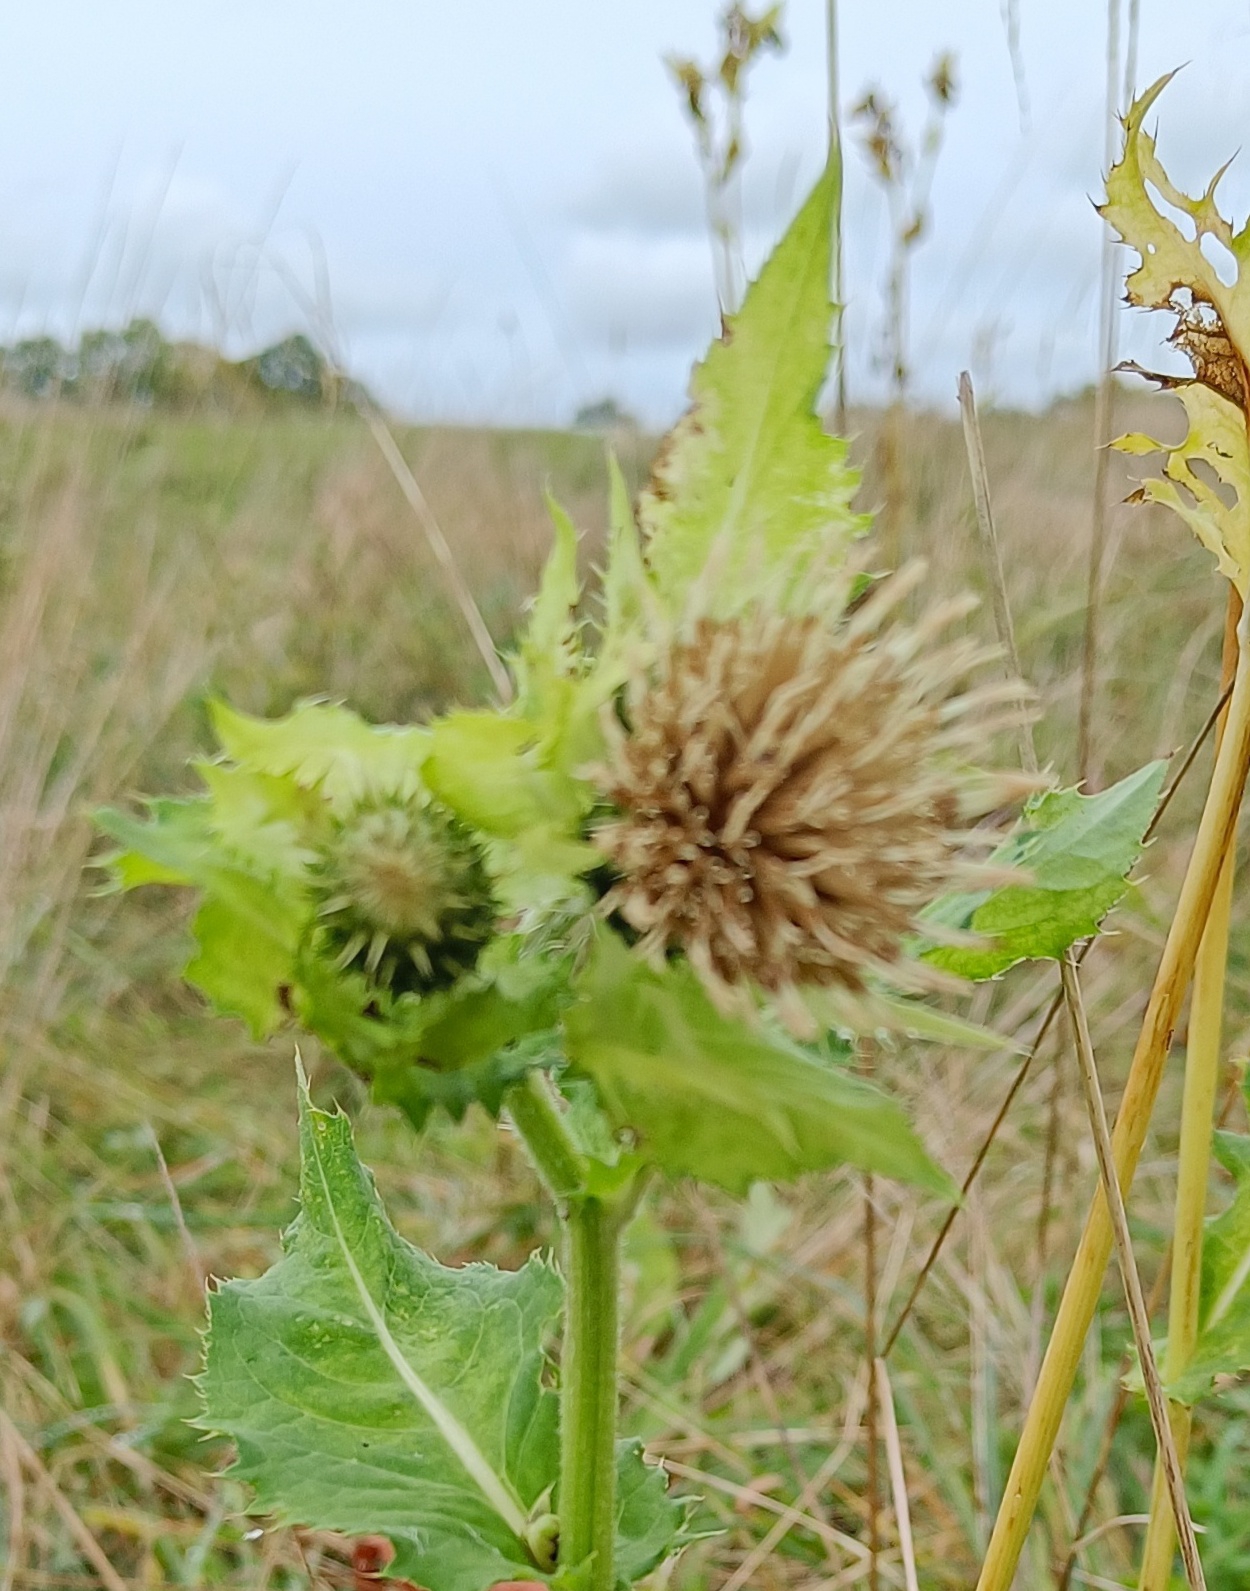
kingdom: Plantae
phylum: Tracheophyta
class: Magnoliopsida
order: Asterales
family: Asteraceae
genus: Cirsium
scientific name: Cirsium oleraceum
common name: Kål-tidsel
